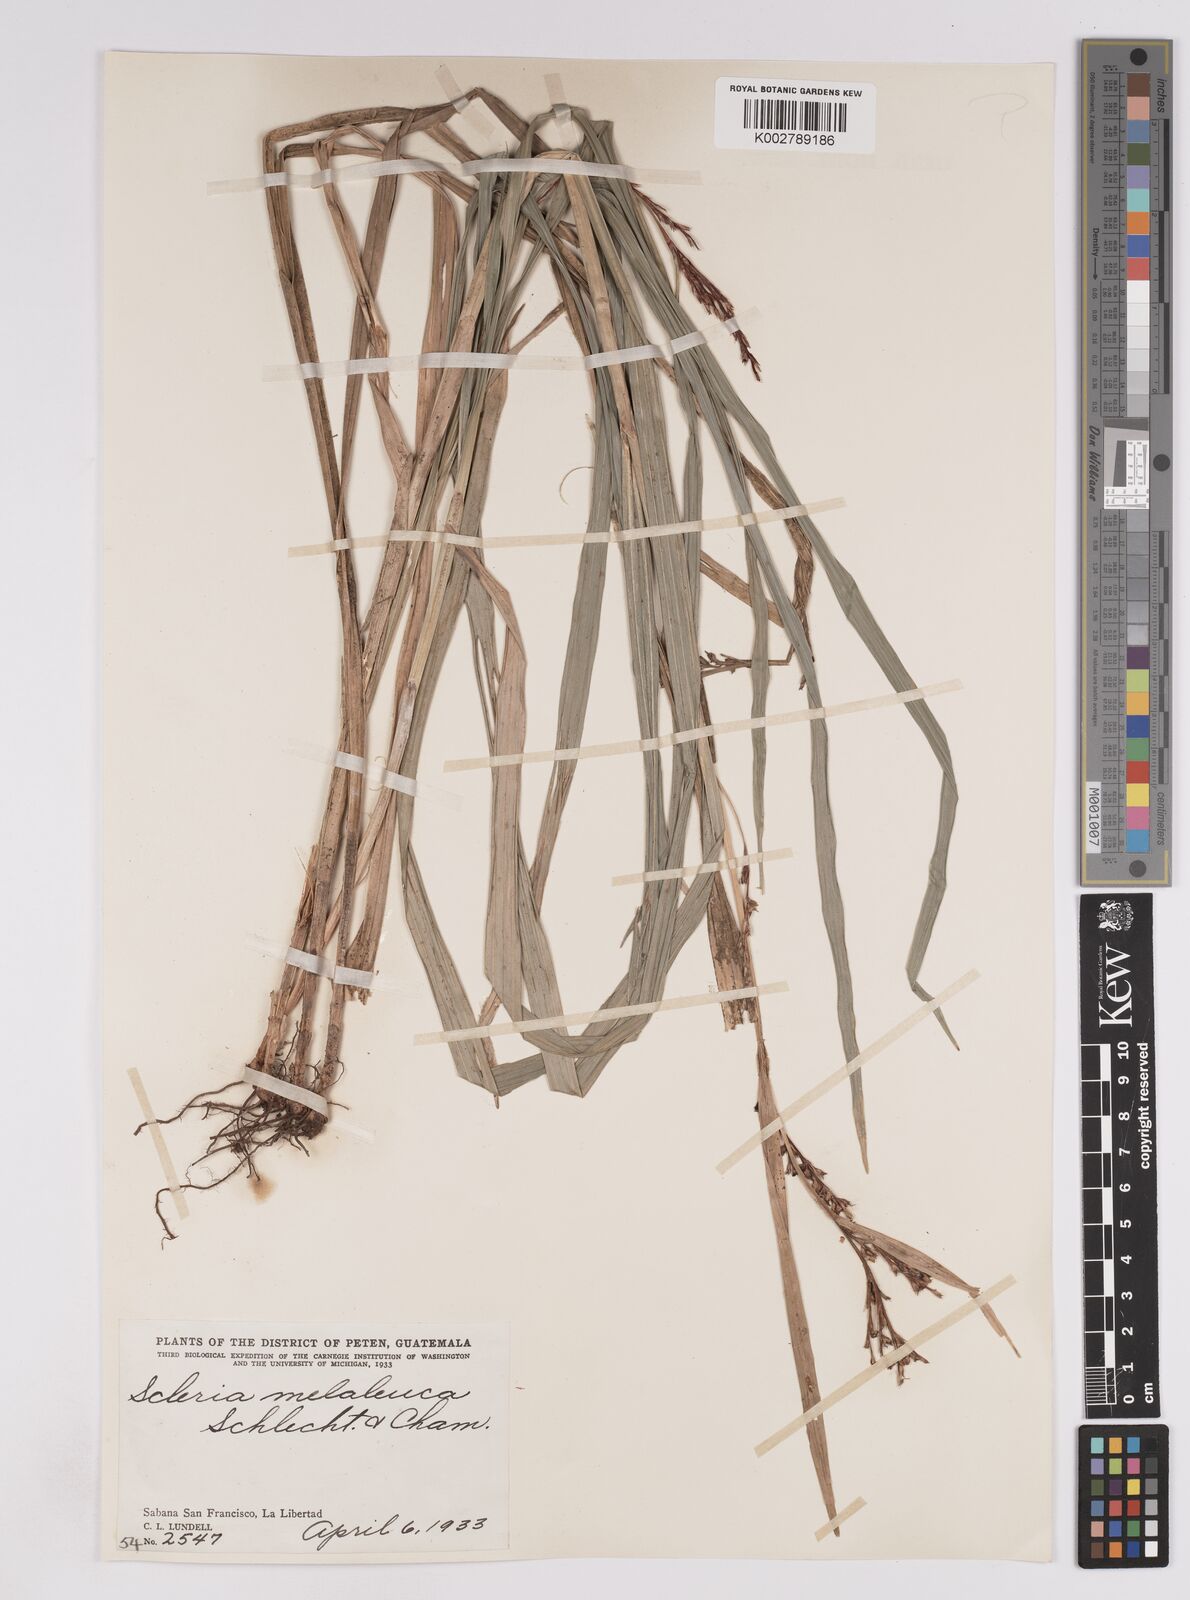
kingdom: Plantae
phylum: Tracheophyta
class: Liliopsida
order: Poales
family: Cyperaceae
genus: Scleria
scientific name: Scleria gaertneri
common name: Cortadera blanca
